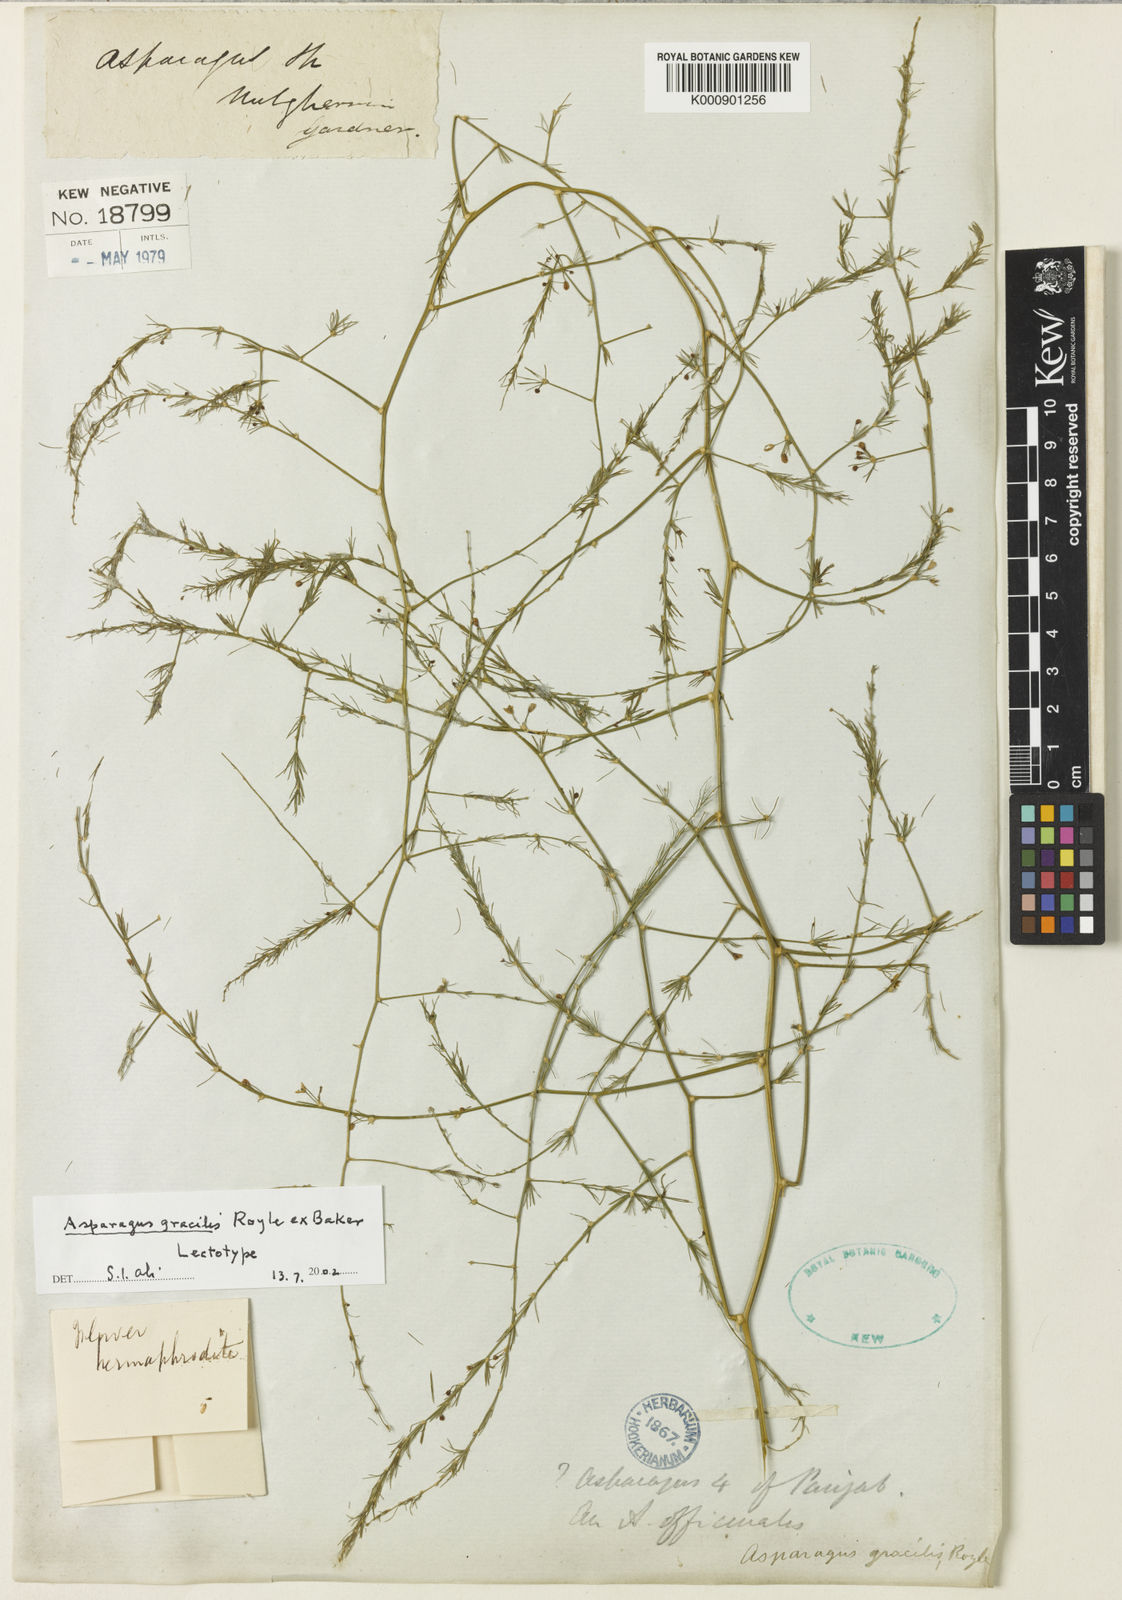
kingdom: Plantae
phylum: Tracheophyta
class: Liliopsida
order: Asparagales
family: Asparagaceae
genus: Asparagus
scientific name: Asparagus
